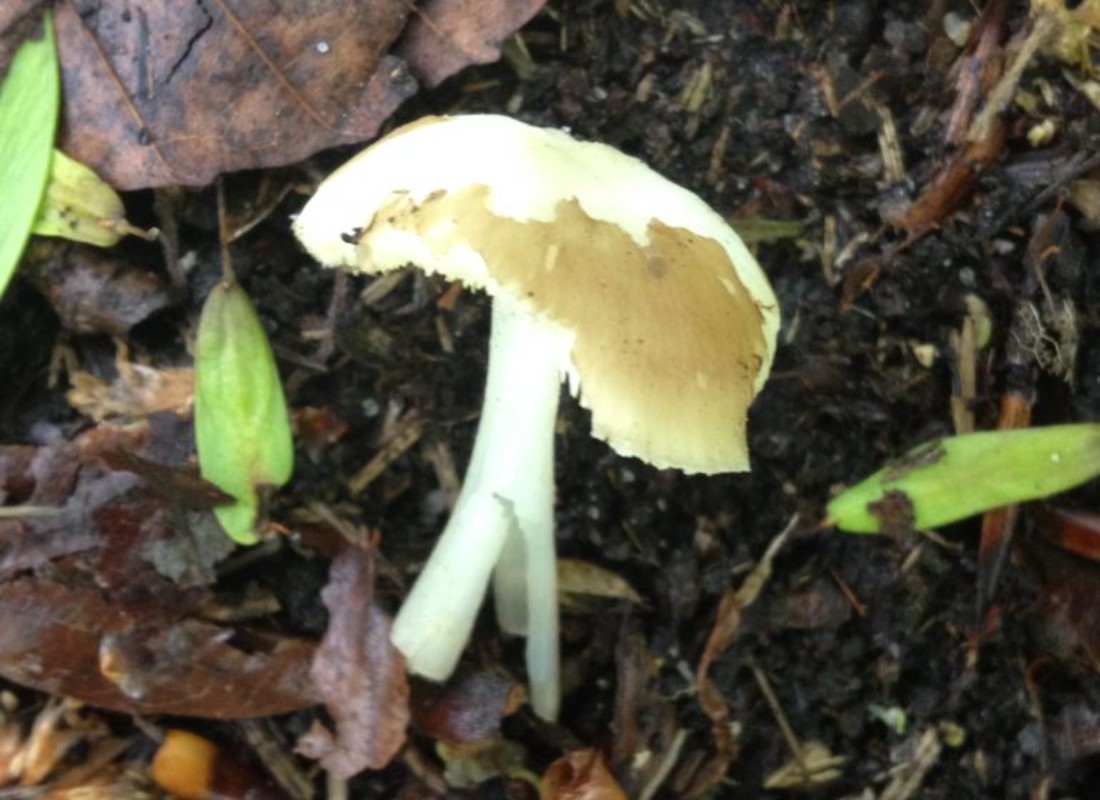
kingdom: Fungi
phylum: Basidiomycota
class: Agaricomycetes
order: Agaricales
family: Porotheleaceae
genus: Hydropodia
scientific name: Hydropodia subalpina
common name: vår-fnugfod
